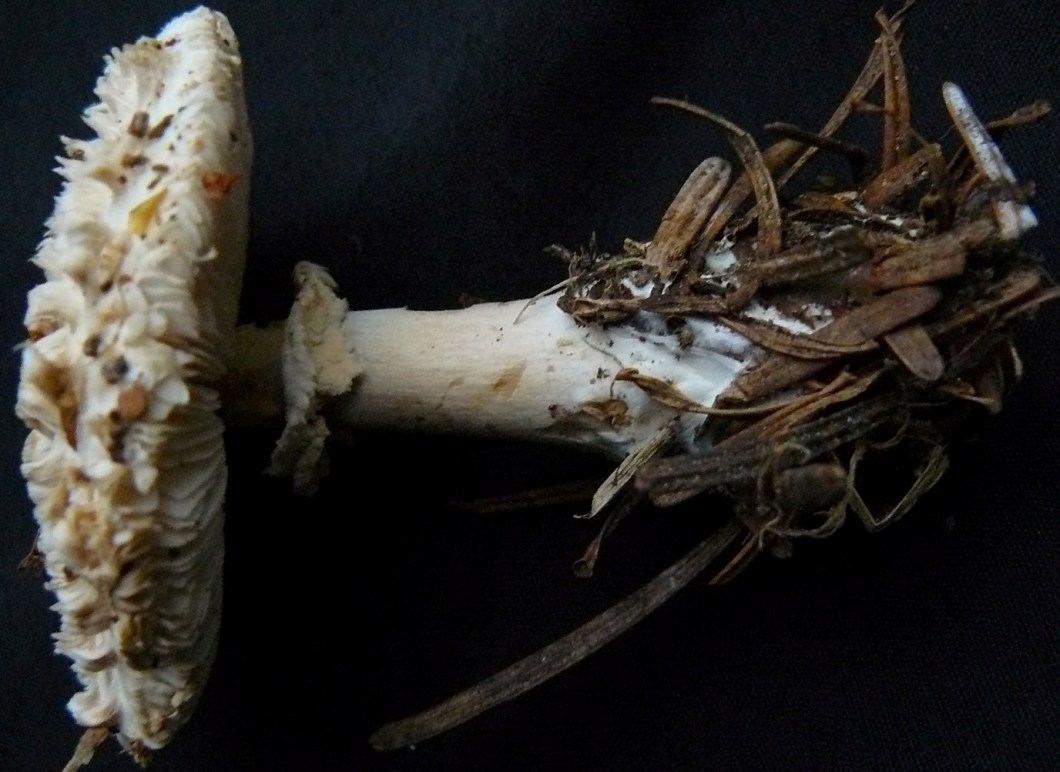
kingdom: Fungi
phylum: Basidiomycota
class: Agaricomycetes
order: Agaricales
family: Agaricaceae
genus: Leucoagaricus
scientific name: Leucoagaricus nympharum
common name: gran-silkehat
